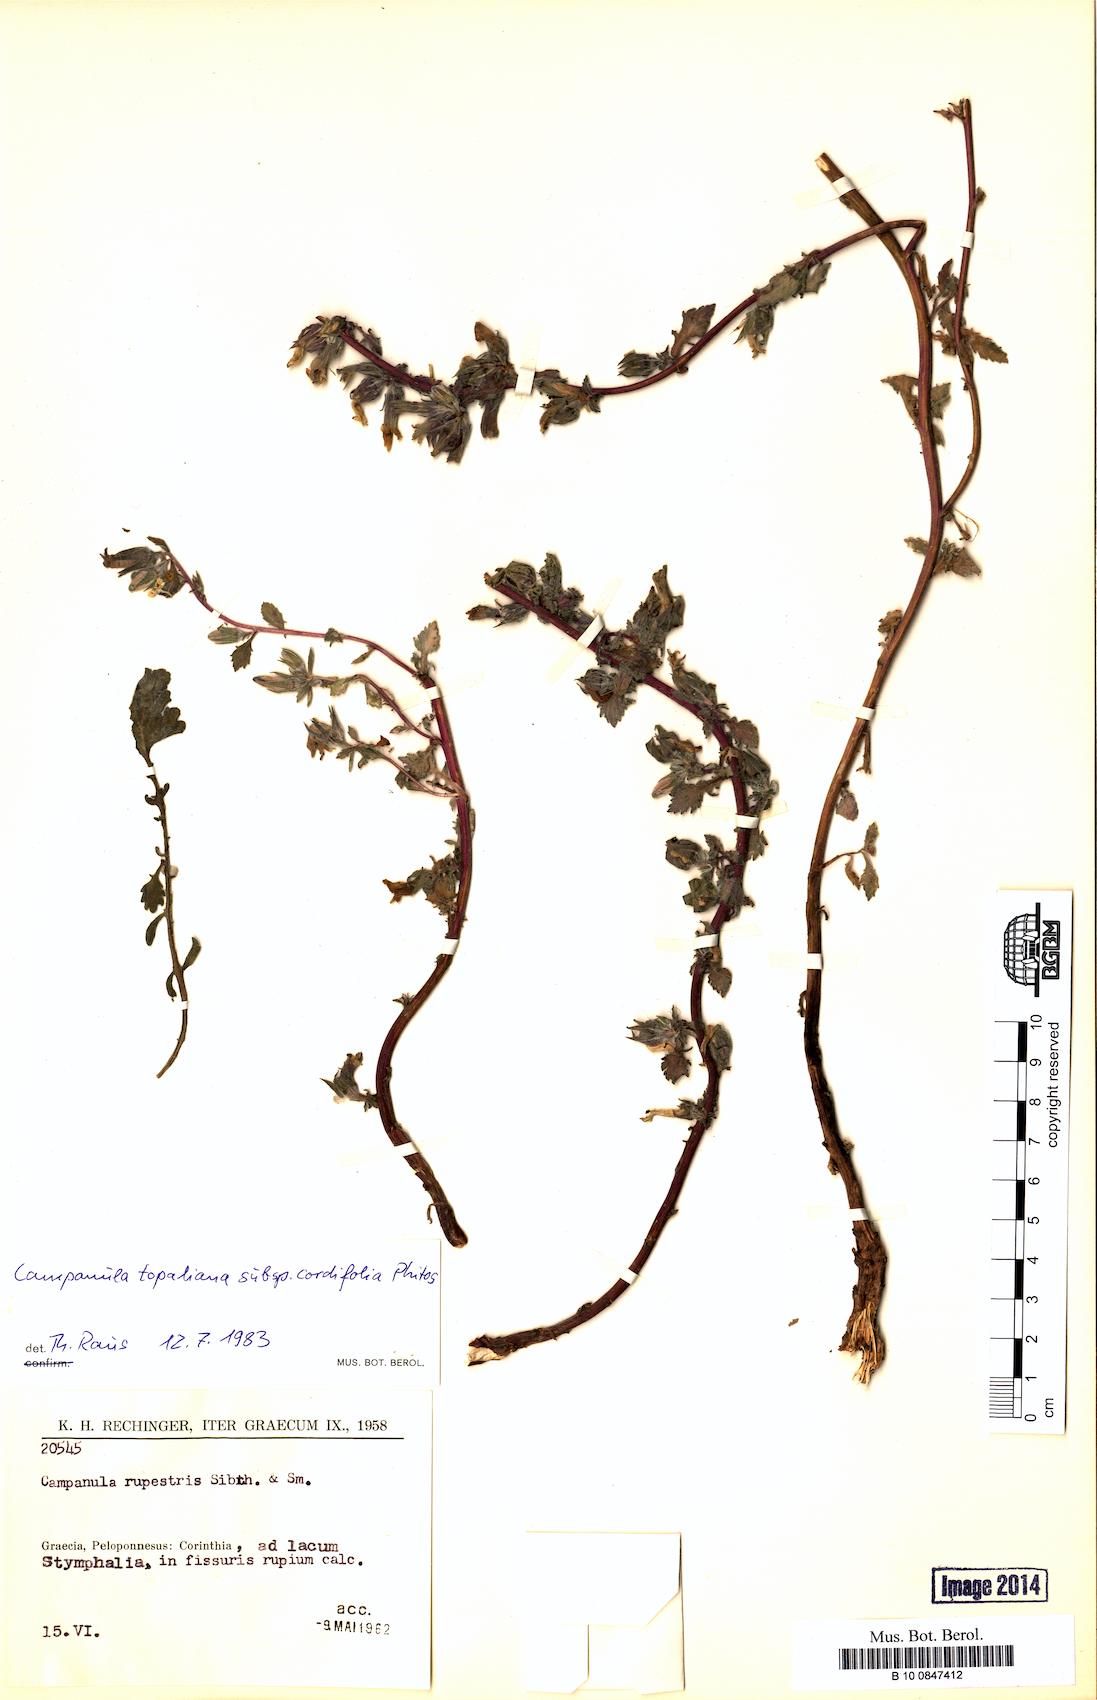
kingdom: Plantae
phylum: Tracheophyta
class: Magnoliopsida
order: Asterales
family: Campanulaceae
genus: Campanula
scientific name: Campanula topaliana
